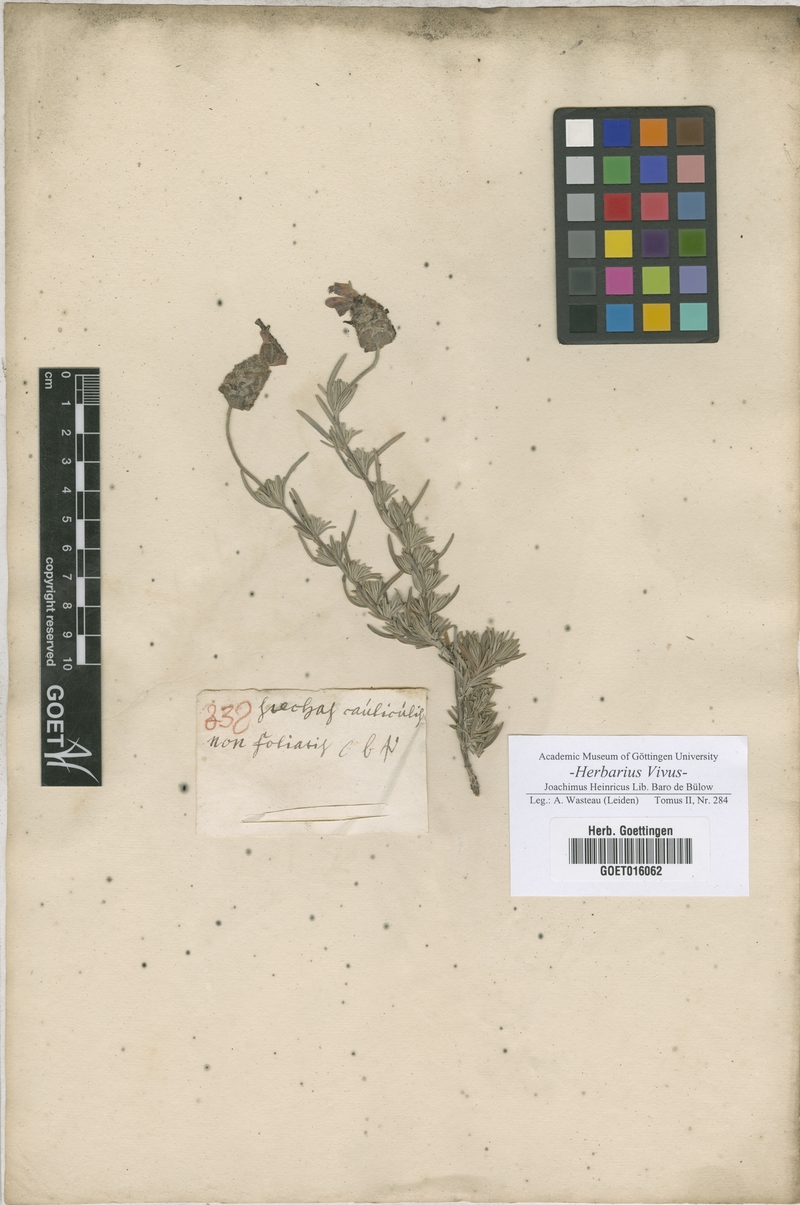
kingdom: Plantae
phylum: Tracheophyta
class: Magnoliopsida
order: Lamiales
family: Lamiaceae
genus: Lavandula
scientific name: Lavandula stoechas
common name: French lavender
